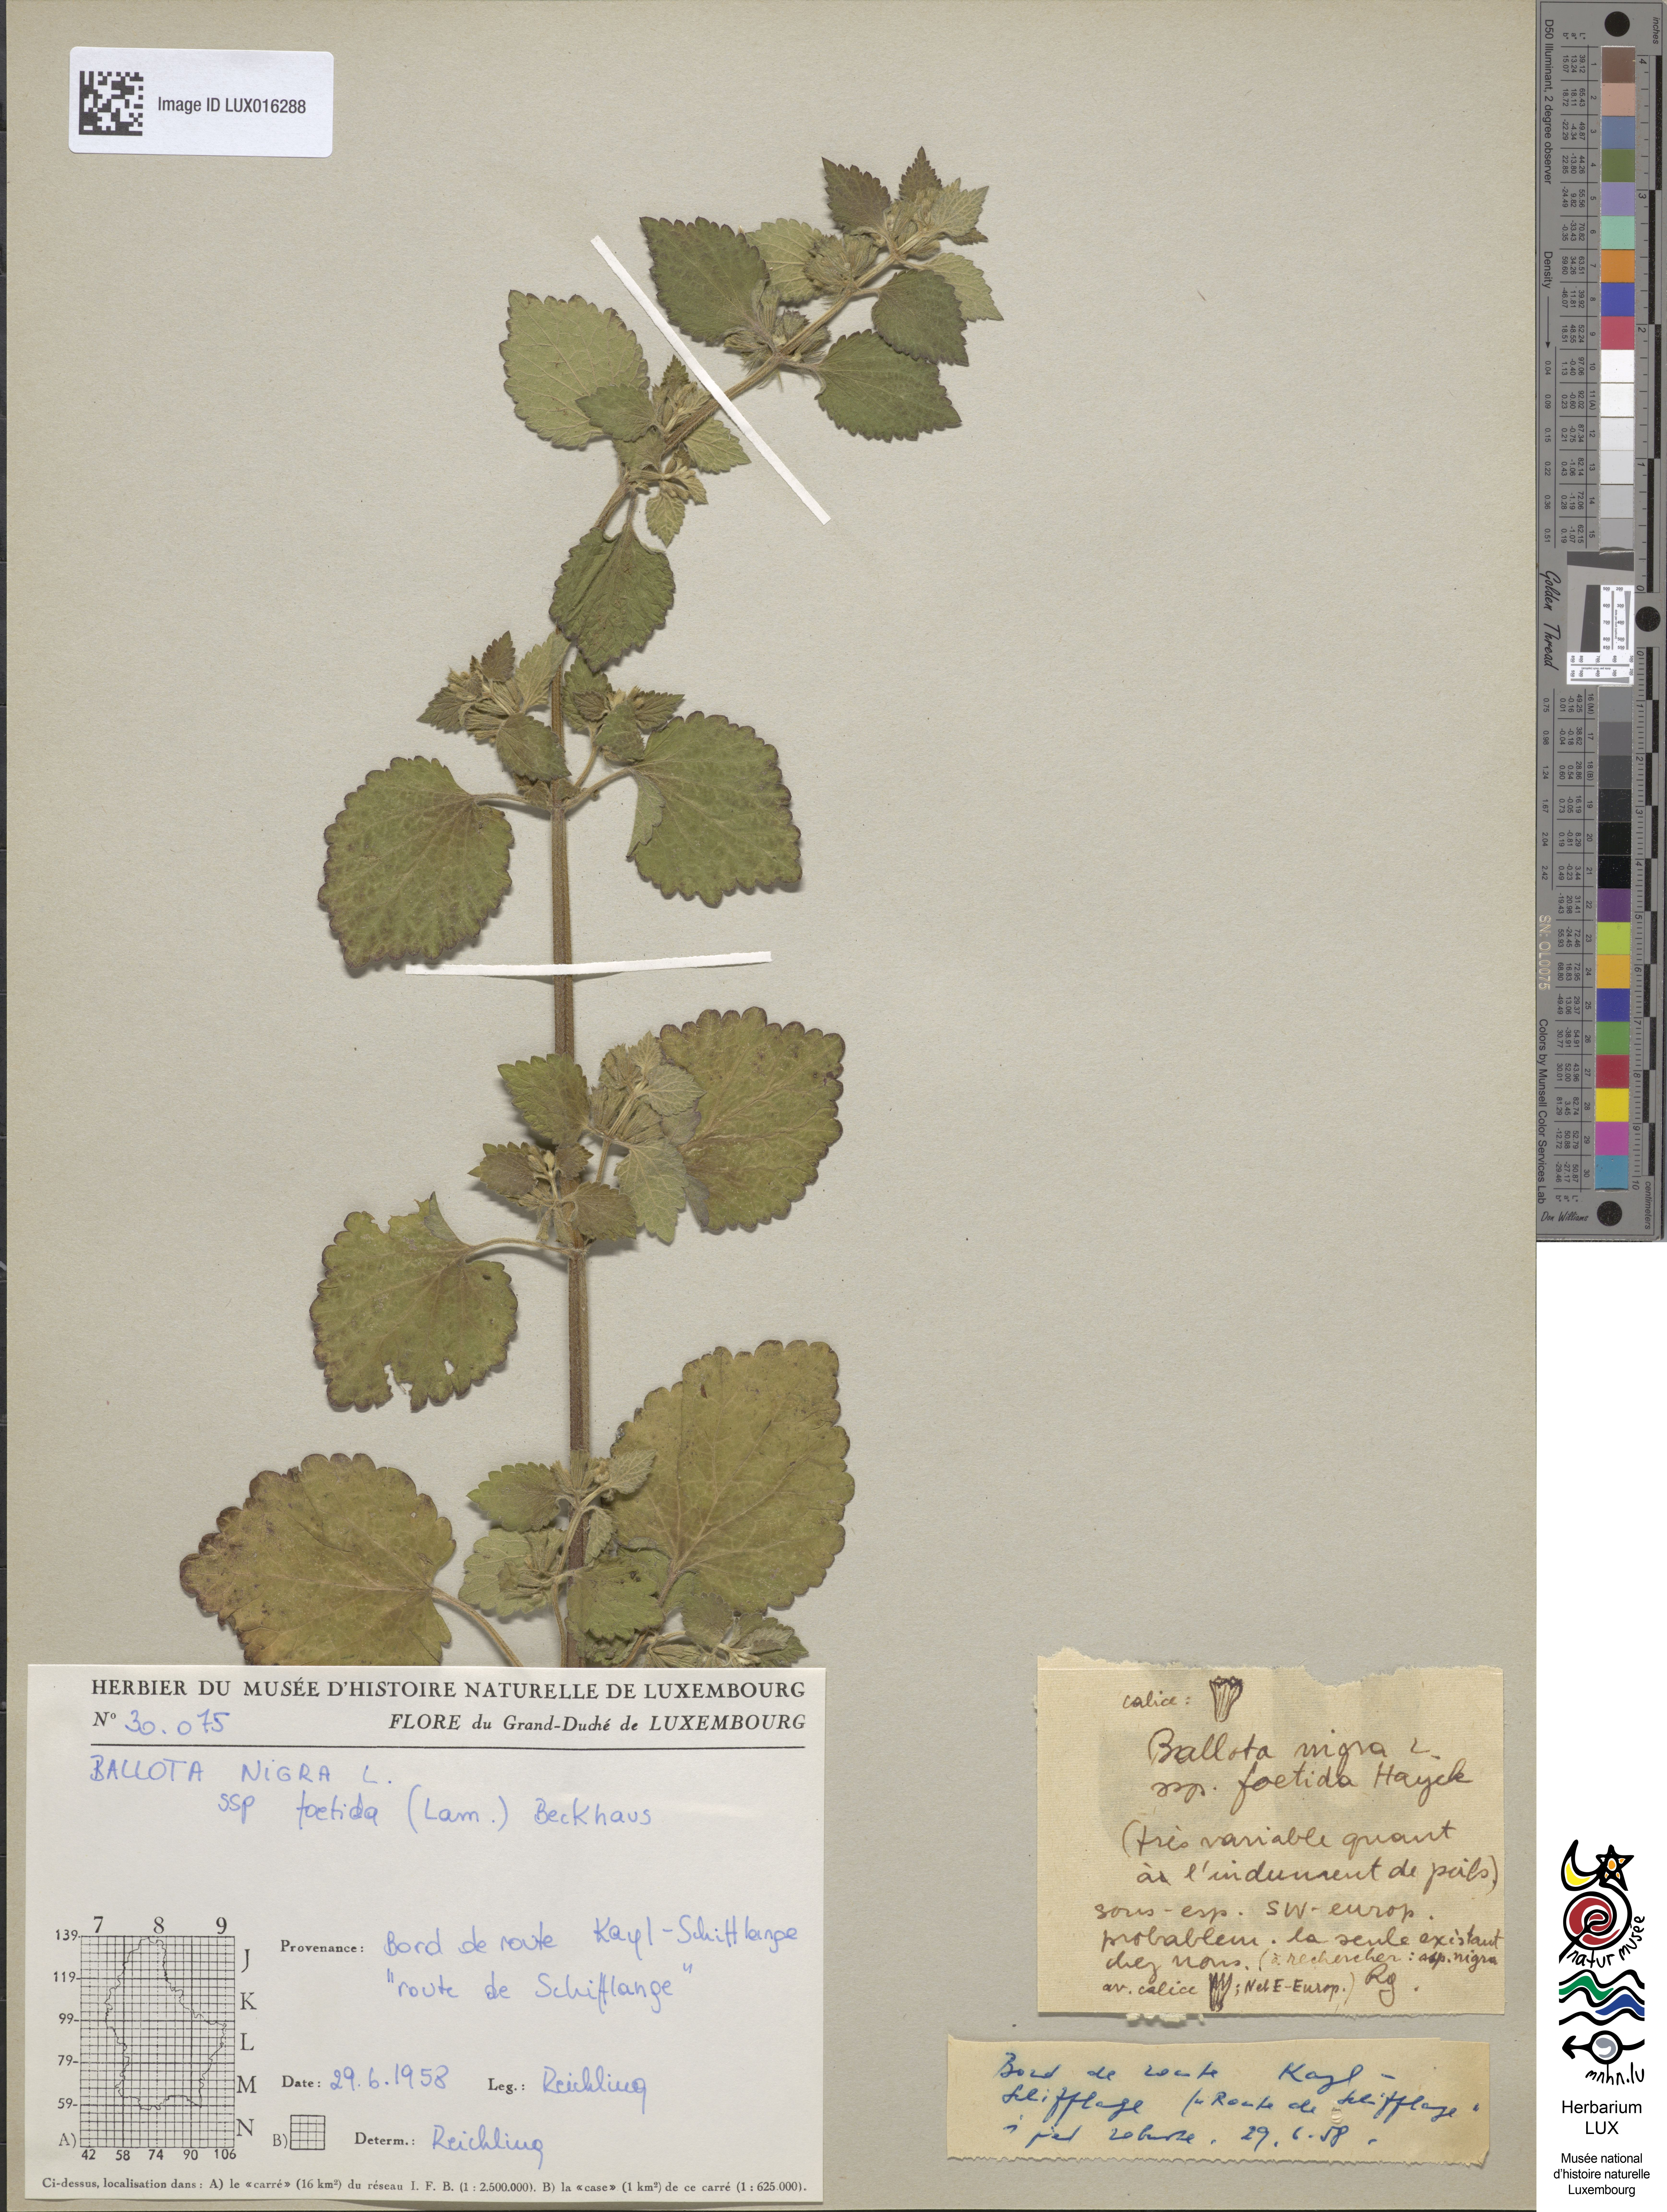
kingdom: Plantae
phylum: Tracheophyta
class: Magnoliopsida
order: Lamiales
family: Lamiaceae
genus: Ballota
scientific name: Ballota nigra
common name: Black horehound
